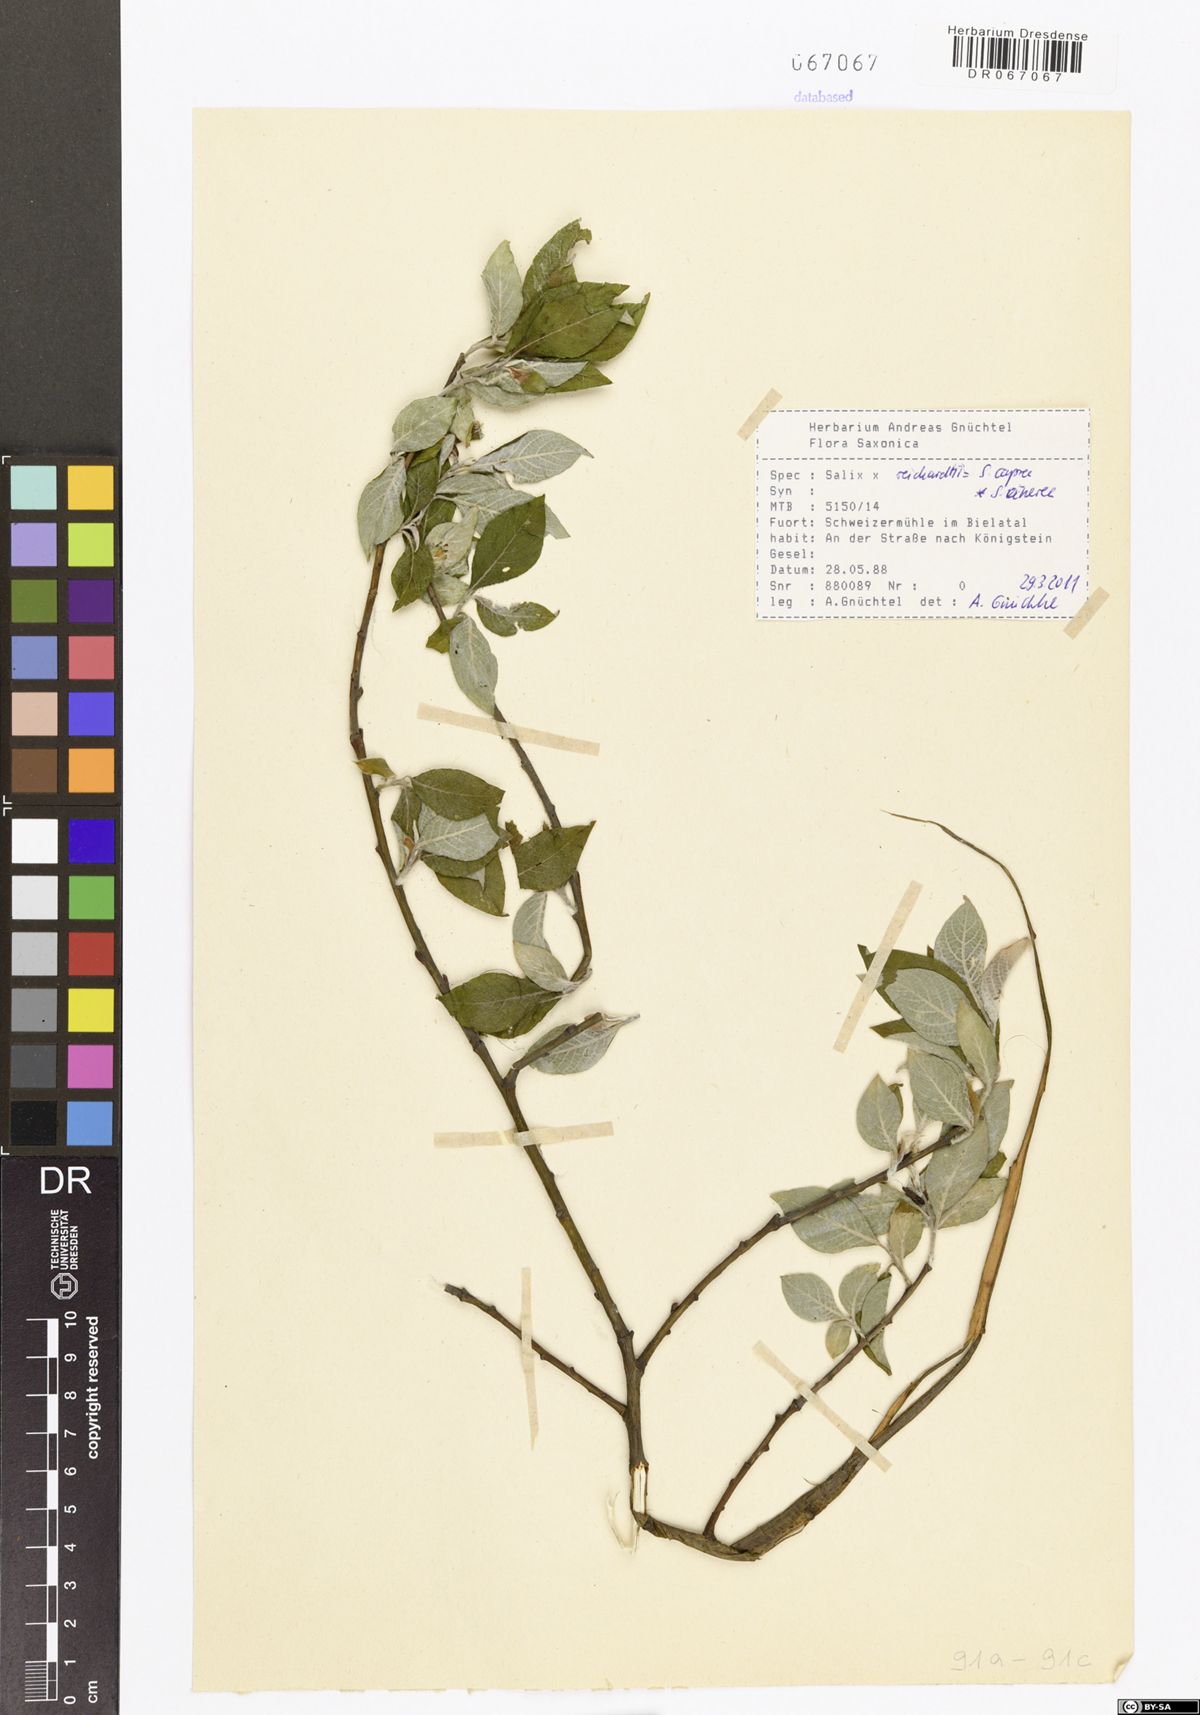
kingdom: Plantae
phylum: Tracheophyta
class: Magnoliopsida
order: Malpighiales
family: Salicaceae
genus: Salix
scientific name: Salix reichardtii
